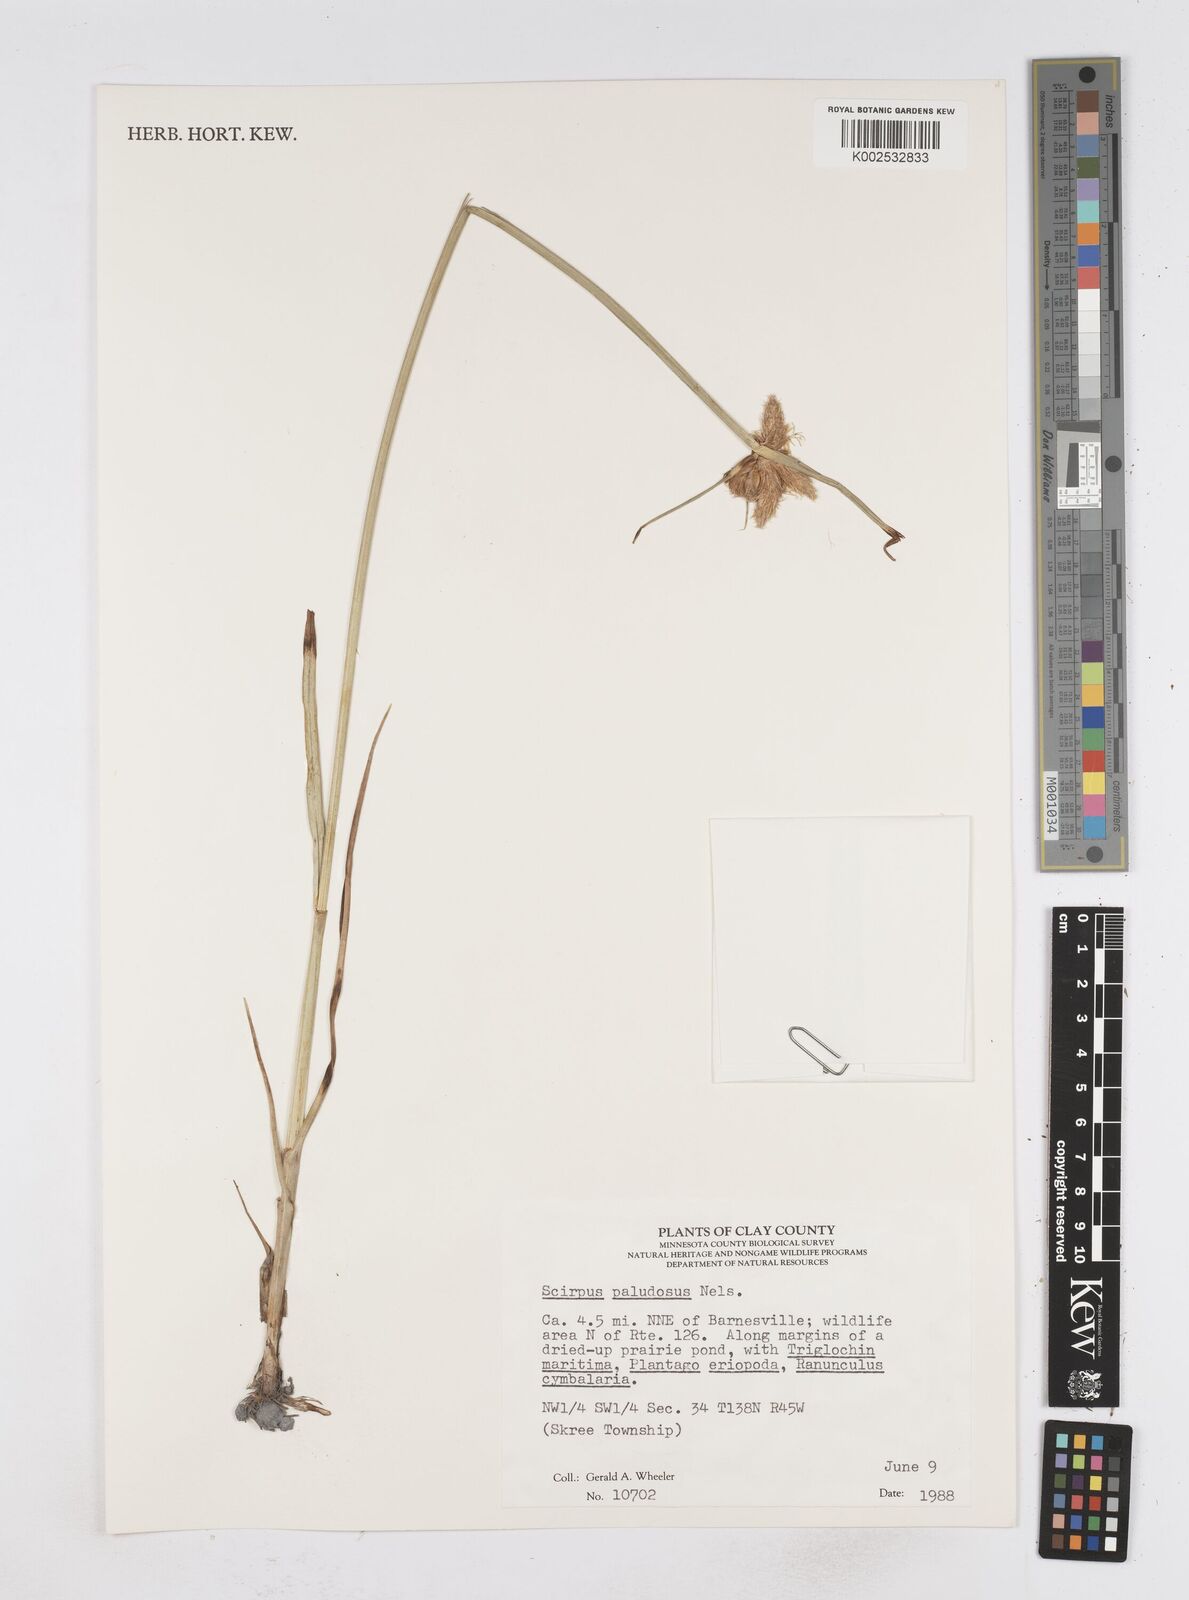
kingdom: Plantae
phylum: Tracheophyta
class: Liliopsida
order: Poales
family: Cyperaceae
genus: Bolboschoenus
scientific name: Bolboschoenus maritimus
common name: Sea club-rush
